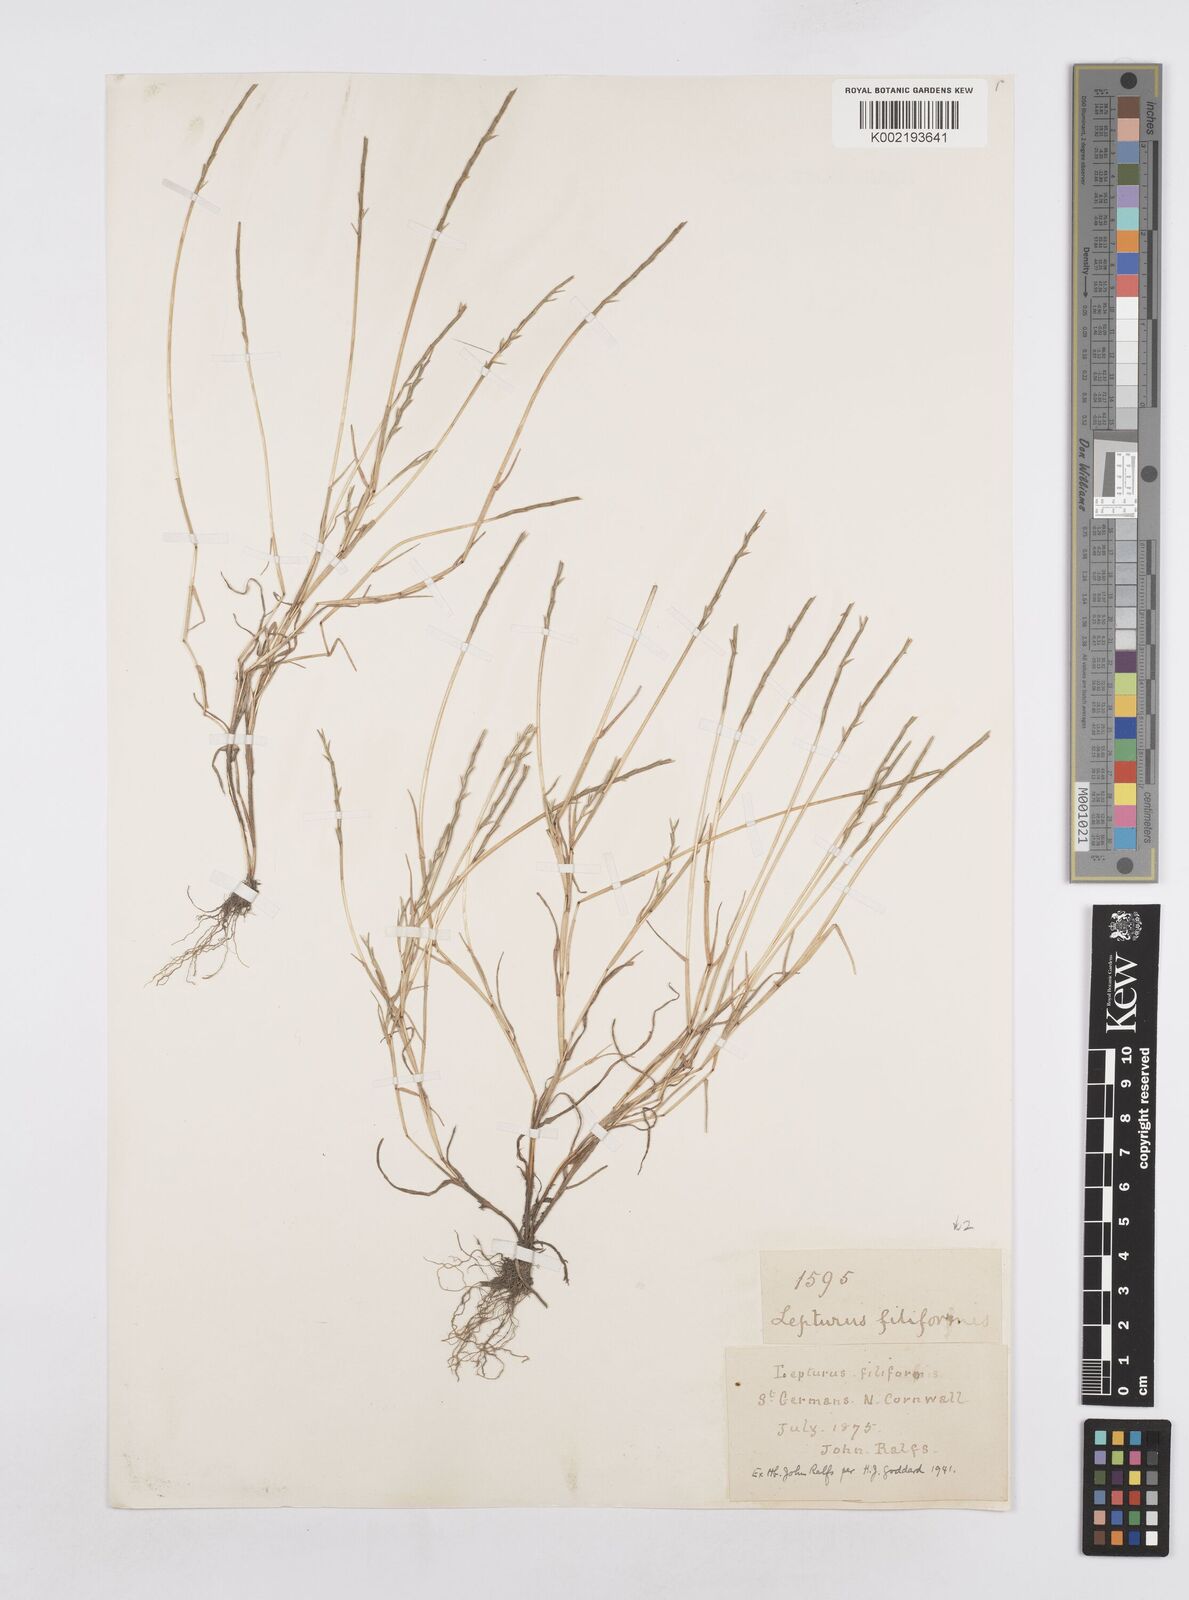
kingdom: Plantae
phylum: Tracheophyta
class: Liliopsida
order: Poales
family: Poaceae
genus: Parapholis
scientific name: Parapholis strigosa
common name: Hard-grass
